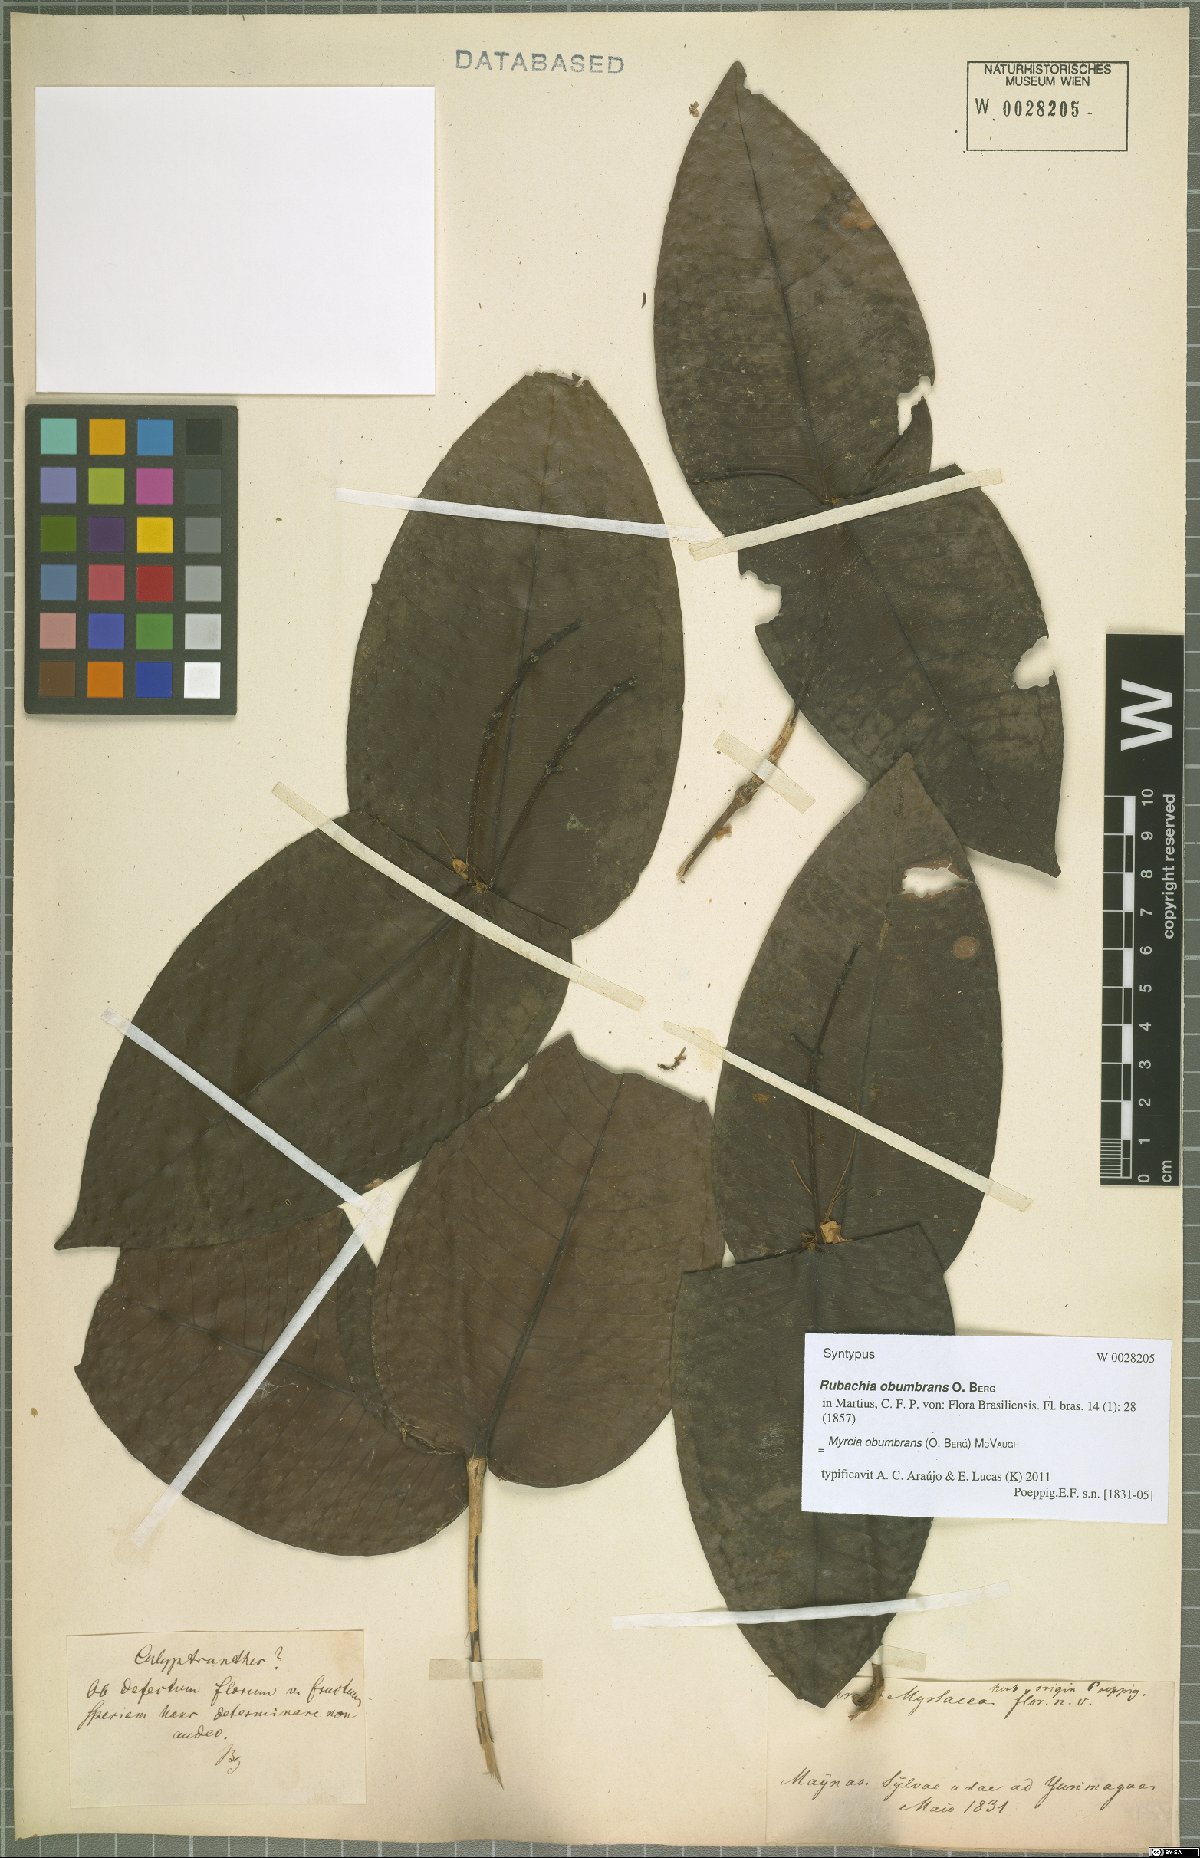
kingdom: Plantae
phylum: Tracheophyta
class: Magnoliopsida
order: Myrtales
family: Myrtaceae
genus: Myrcia
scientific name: Myrcia
